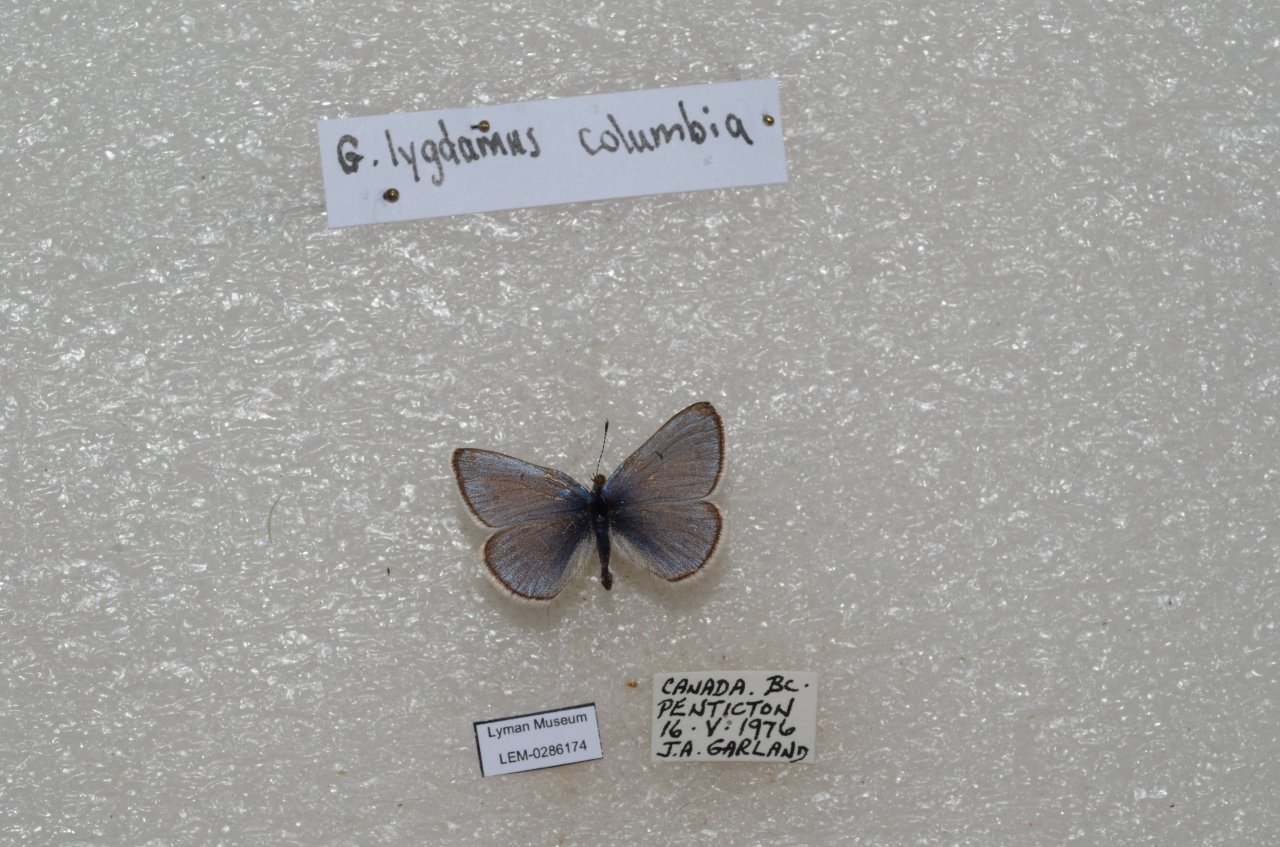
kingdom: Animalia
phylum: Arthropoda
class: Insecta
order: Lepidoptera
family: Lycaenidae
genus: Glaucopsyche
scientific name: Glaucopsyche lygdamus
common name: Silvery Blue
